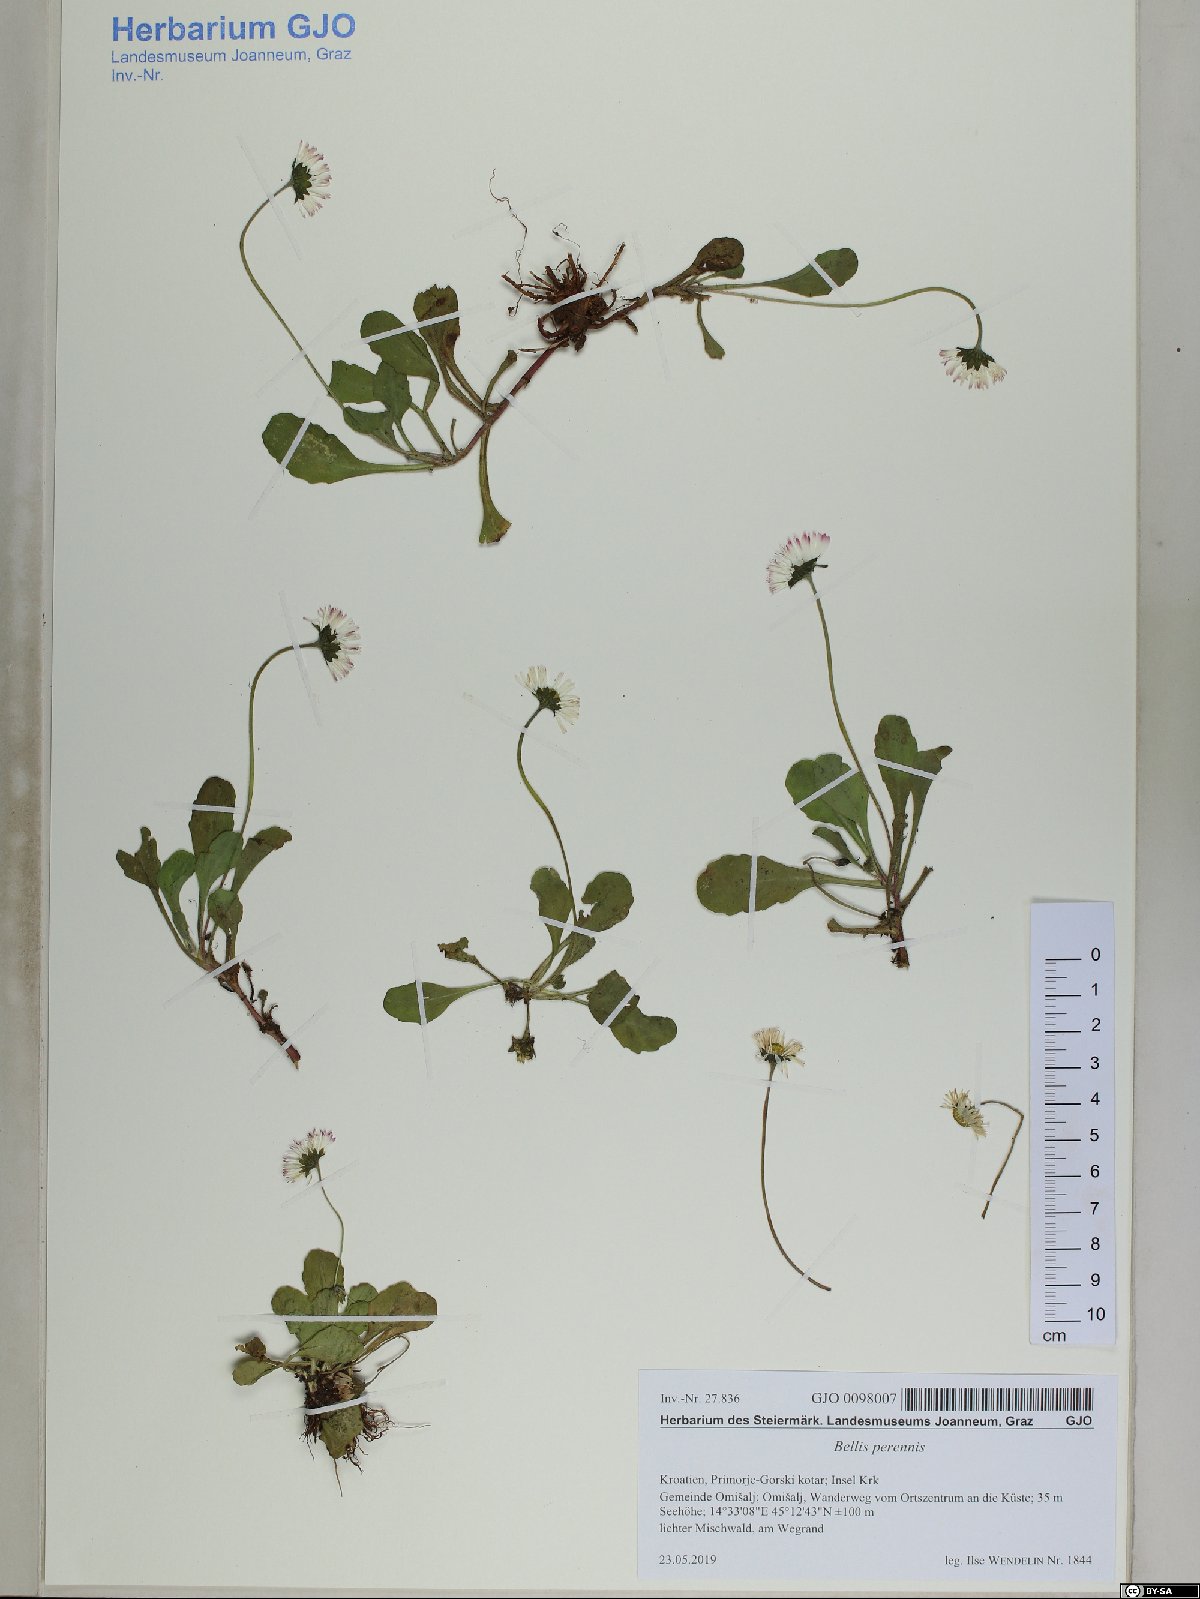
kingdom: Plantae
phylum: Tracheophyta
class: Magnoliopsida
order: Asterales
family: Asteraceae
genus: Bellis
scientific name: Bellis perennis
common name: Lawndaisy
